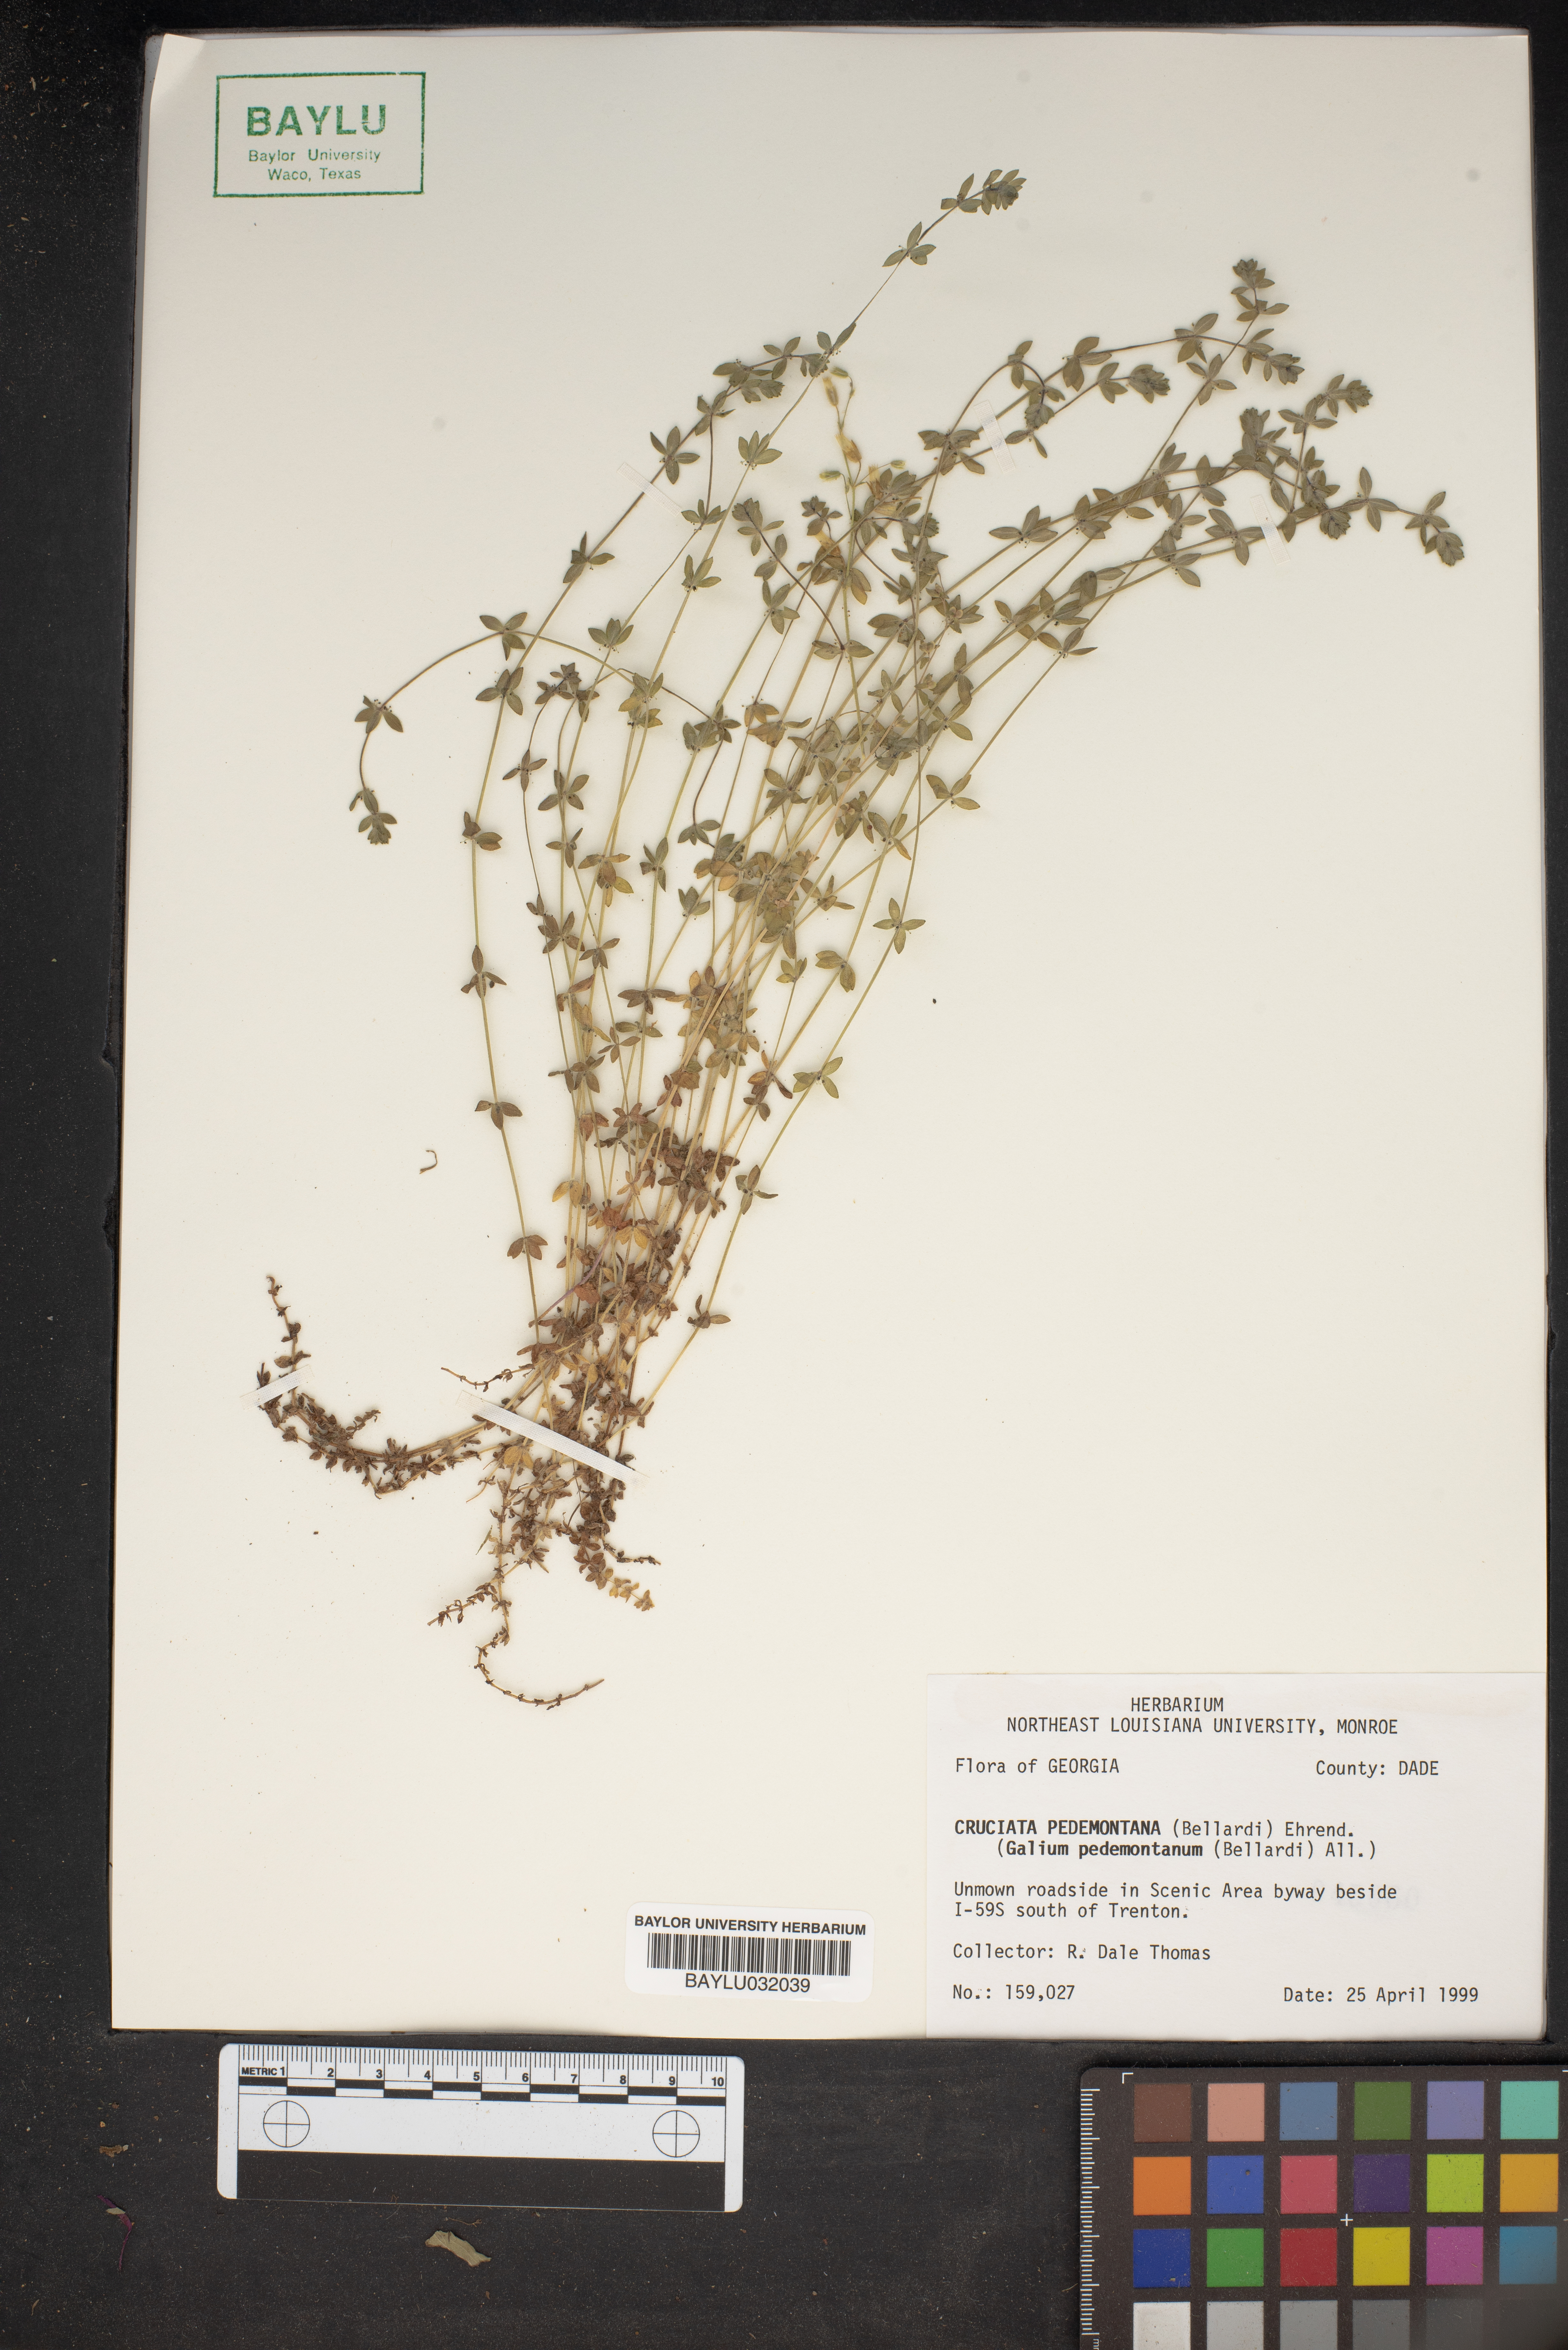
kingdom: Plantae
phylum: Tracheophyta
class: Magnoliopsida
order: Gentianales
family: Rubiaceae
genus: Cruciata
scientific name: Cruciata pedemontana
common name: Piedmont bedstraw
